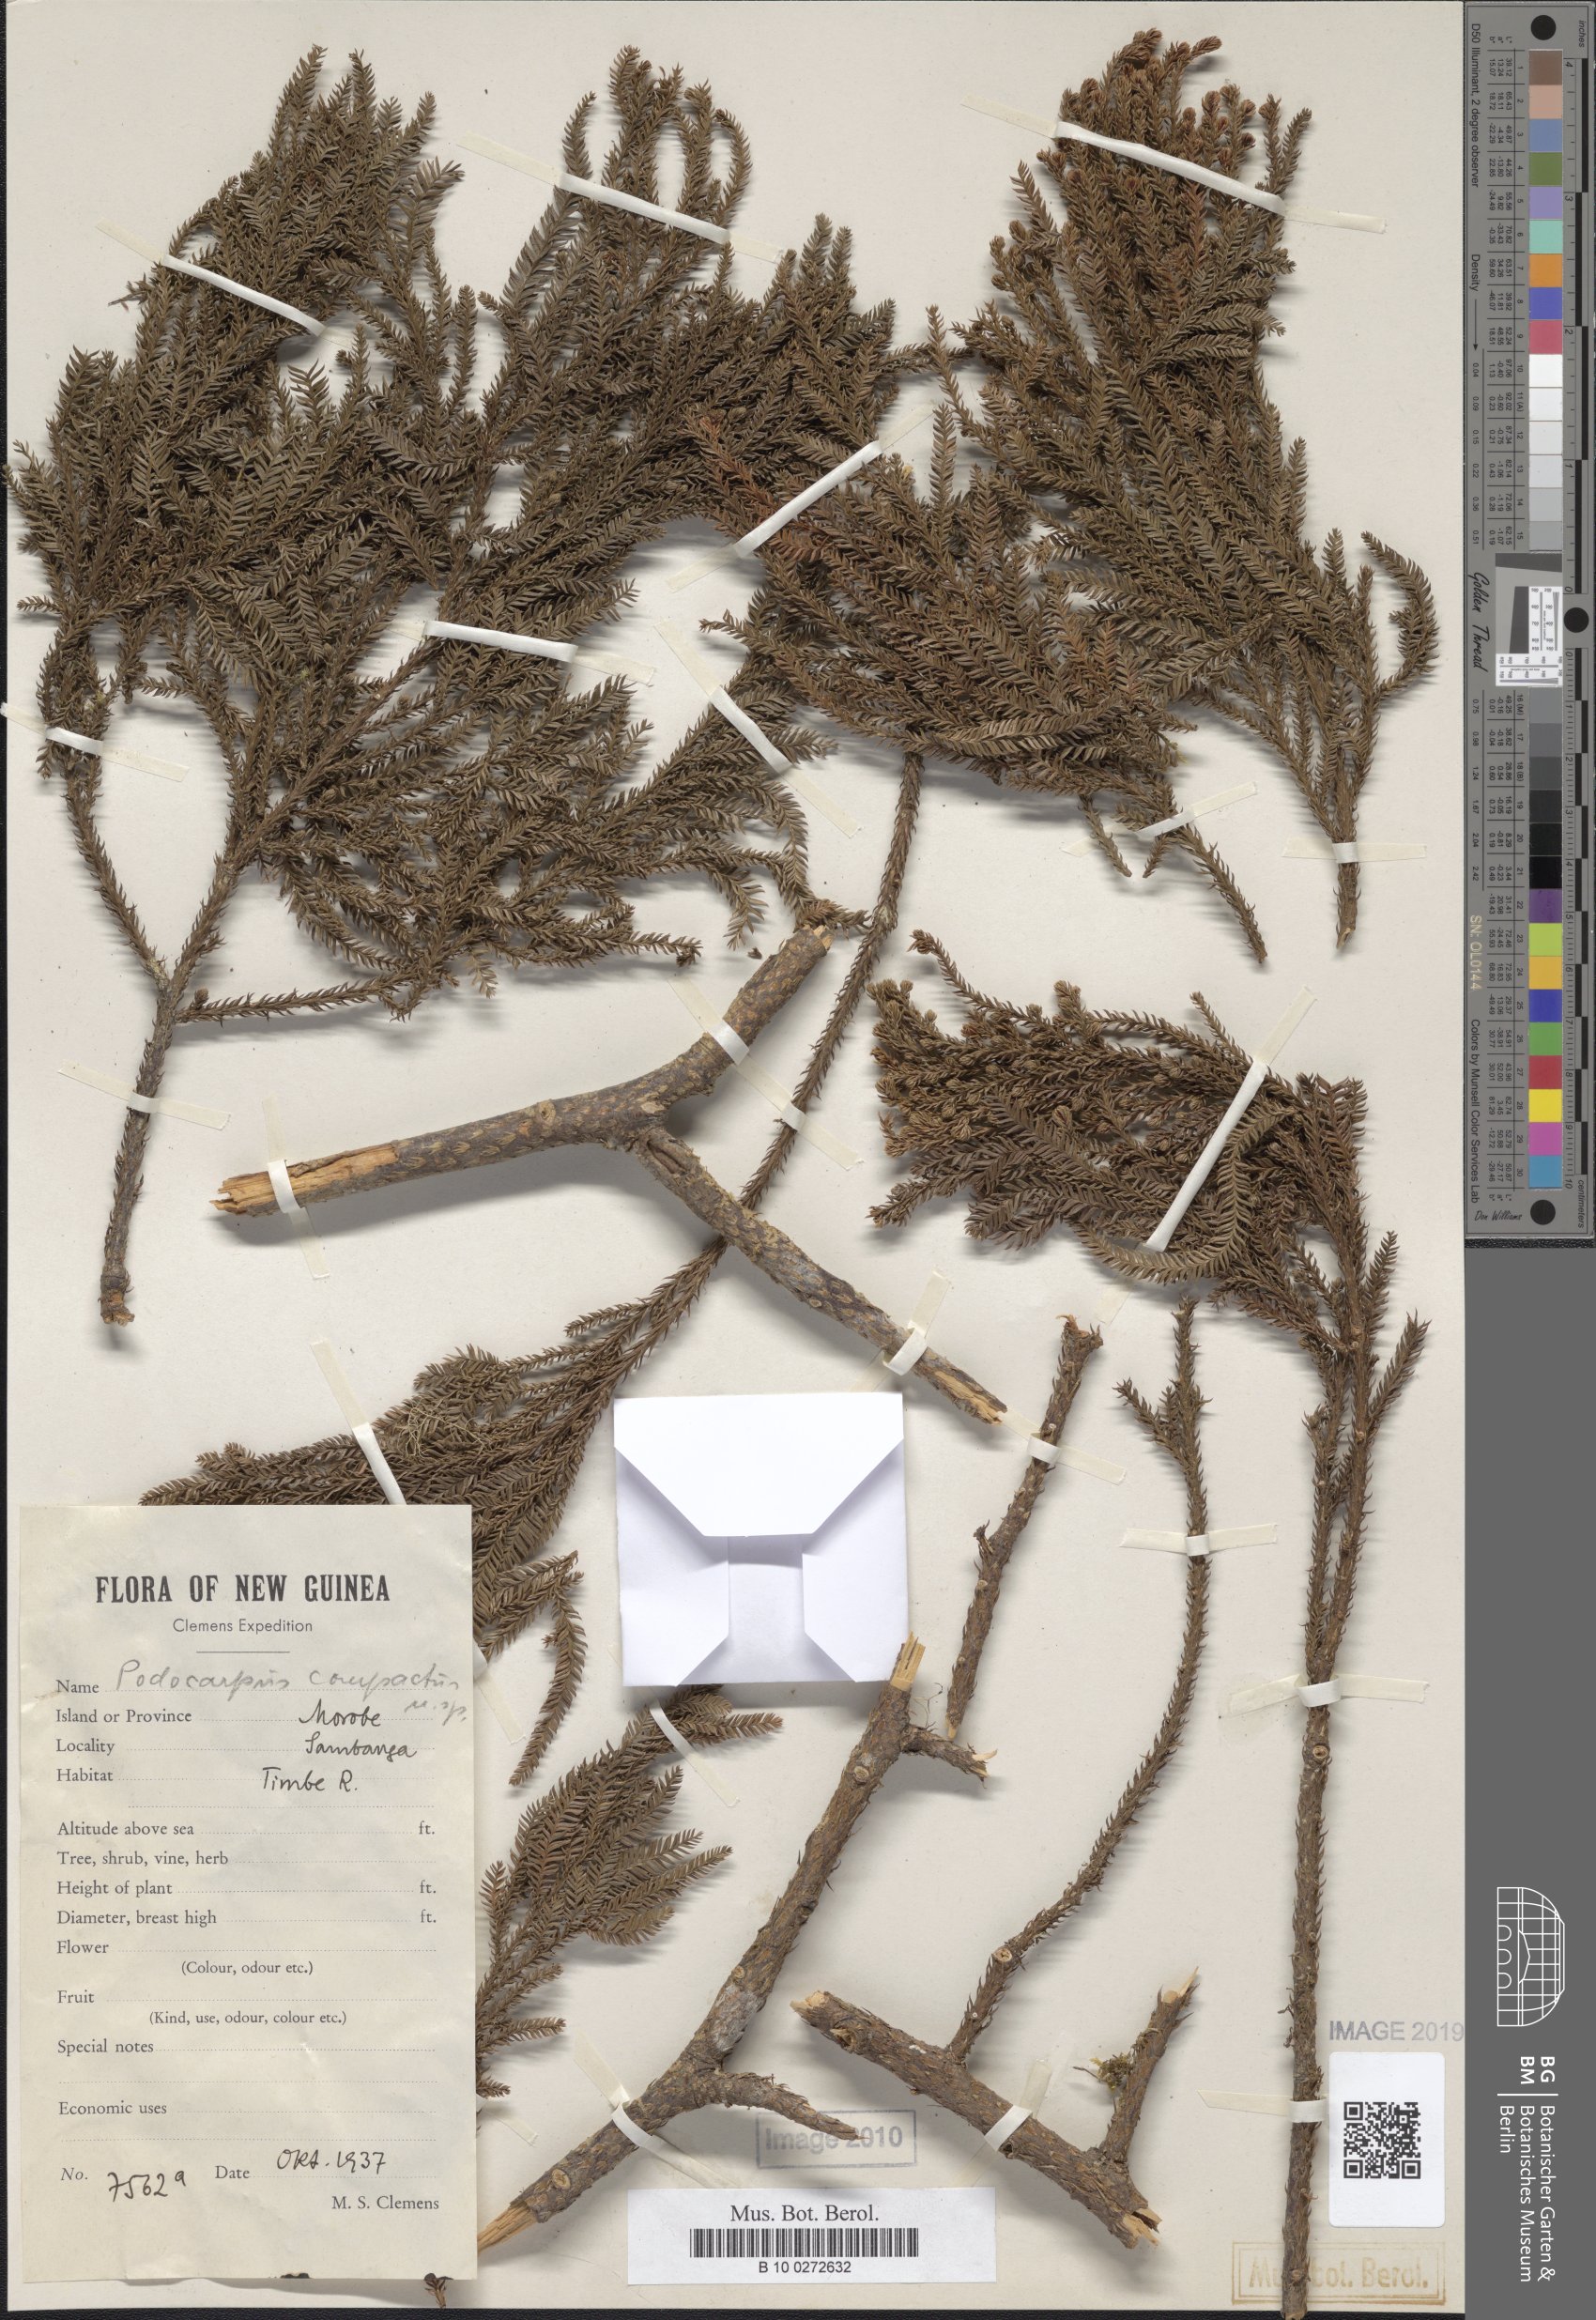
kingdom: Plantae
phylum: Tracheophyta
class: Pinopsida
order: Pinales
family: Podocarpaceae
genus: Dacrycarpus
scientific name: Dacrycarpus compactus
